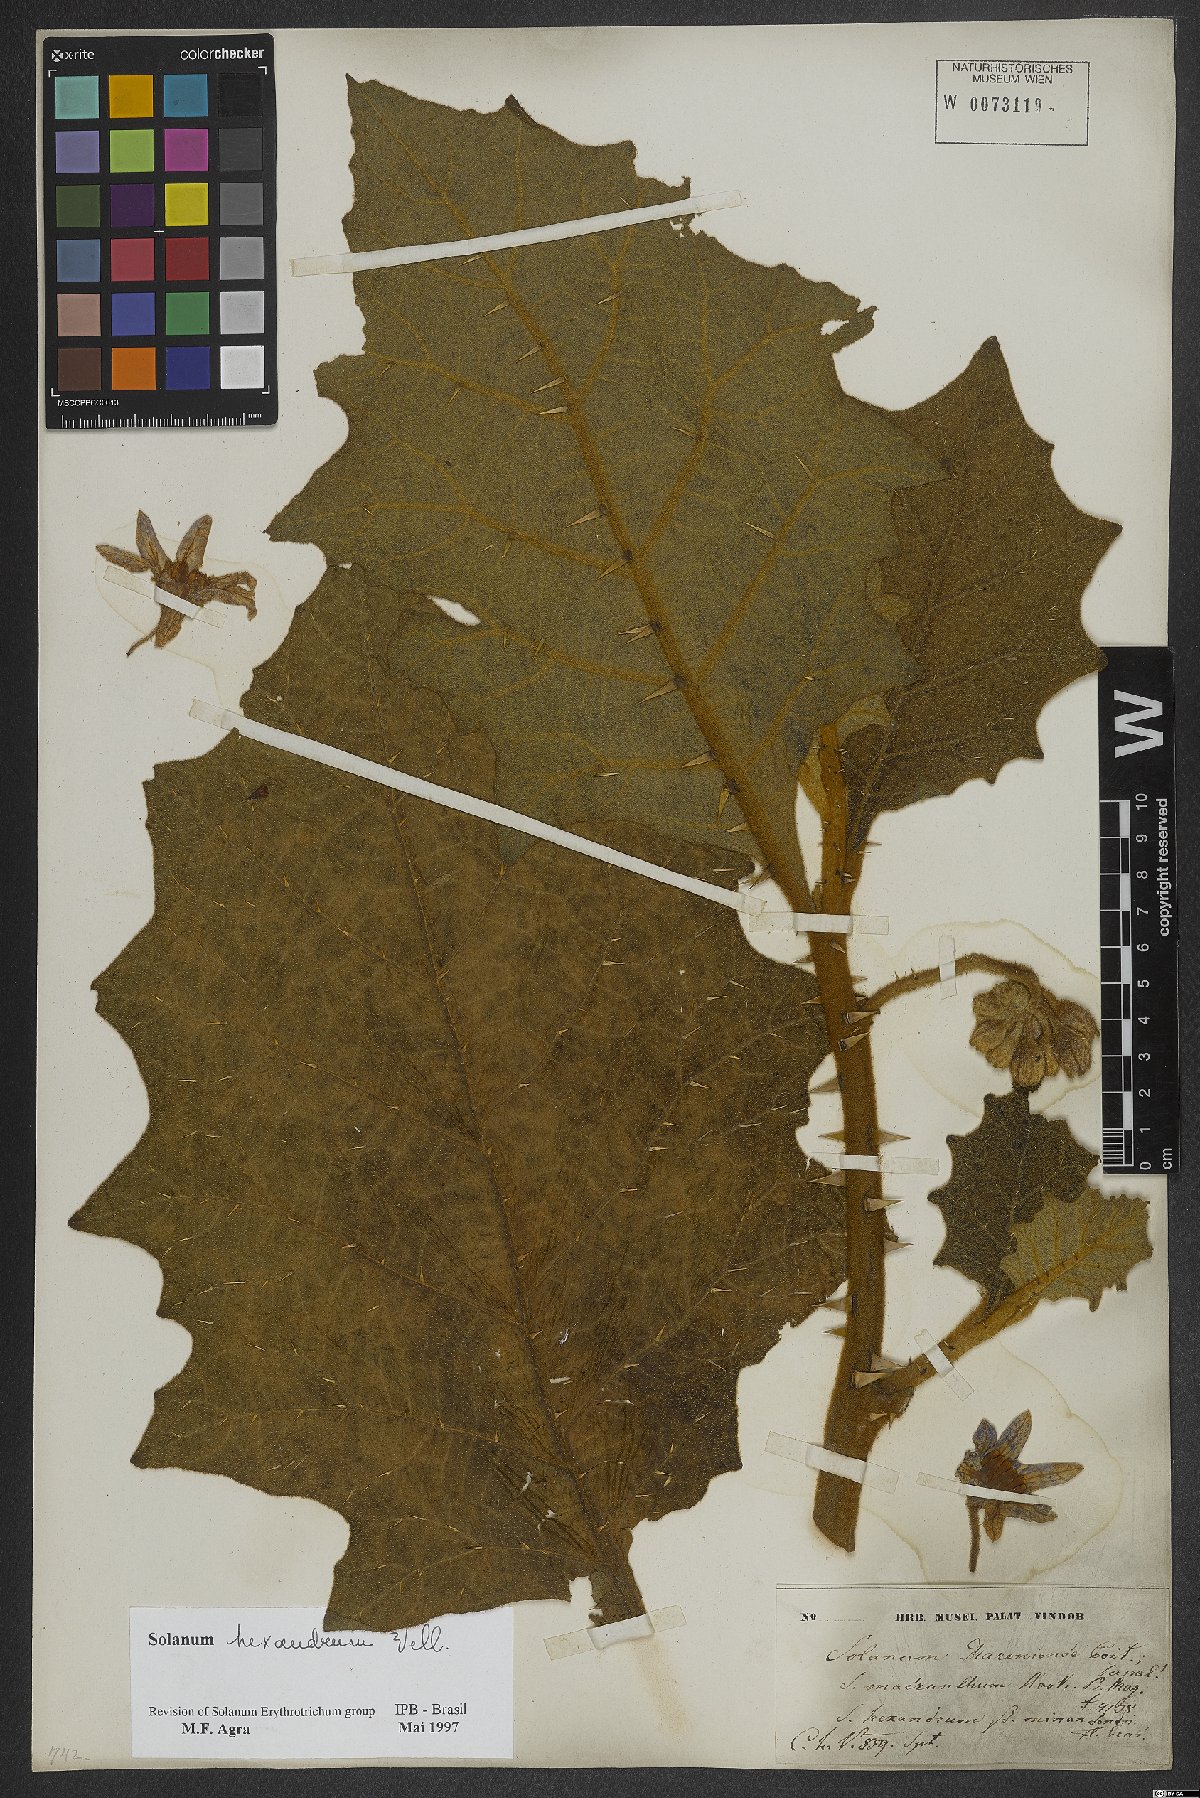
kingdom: Plantae
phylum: Tracheophyta
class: Magnoliopsida
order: Solanales
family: Solanaceae
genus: Solanum
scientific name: Solanum hexandrum
